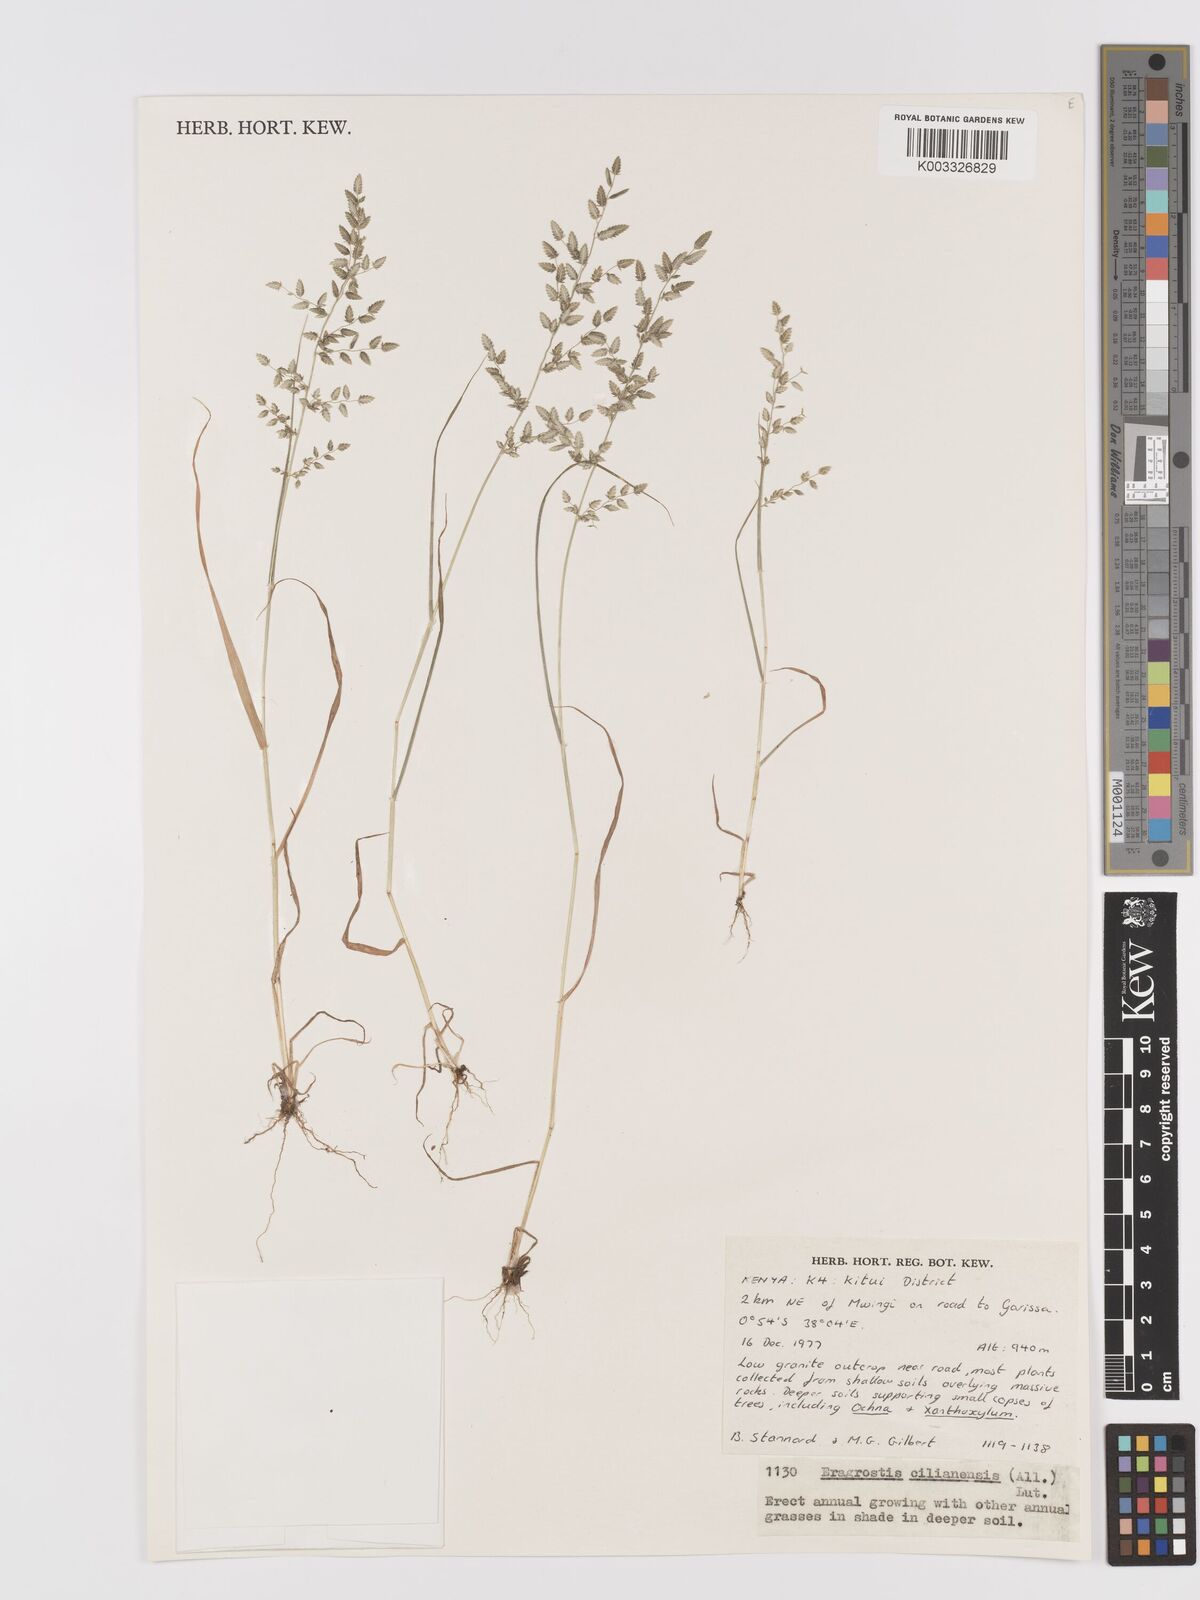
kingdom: Plantae
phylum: Tracheophyta
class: Liliopsida
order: Poales
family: Poaceae
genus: Eragrostis
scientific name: Eragrostis cilianensis
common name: Stinkgrass
